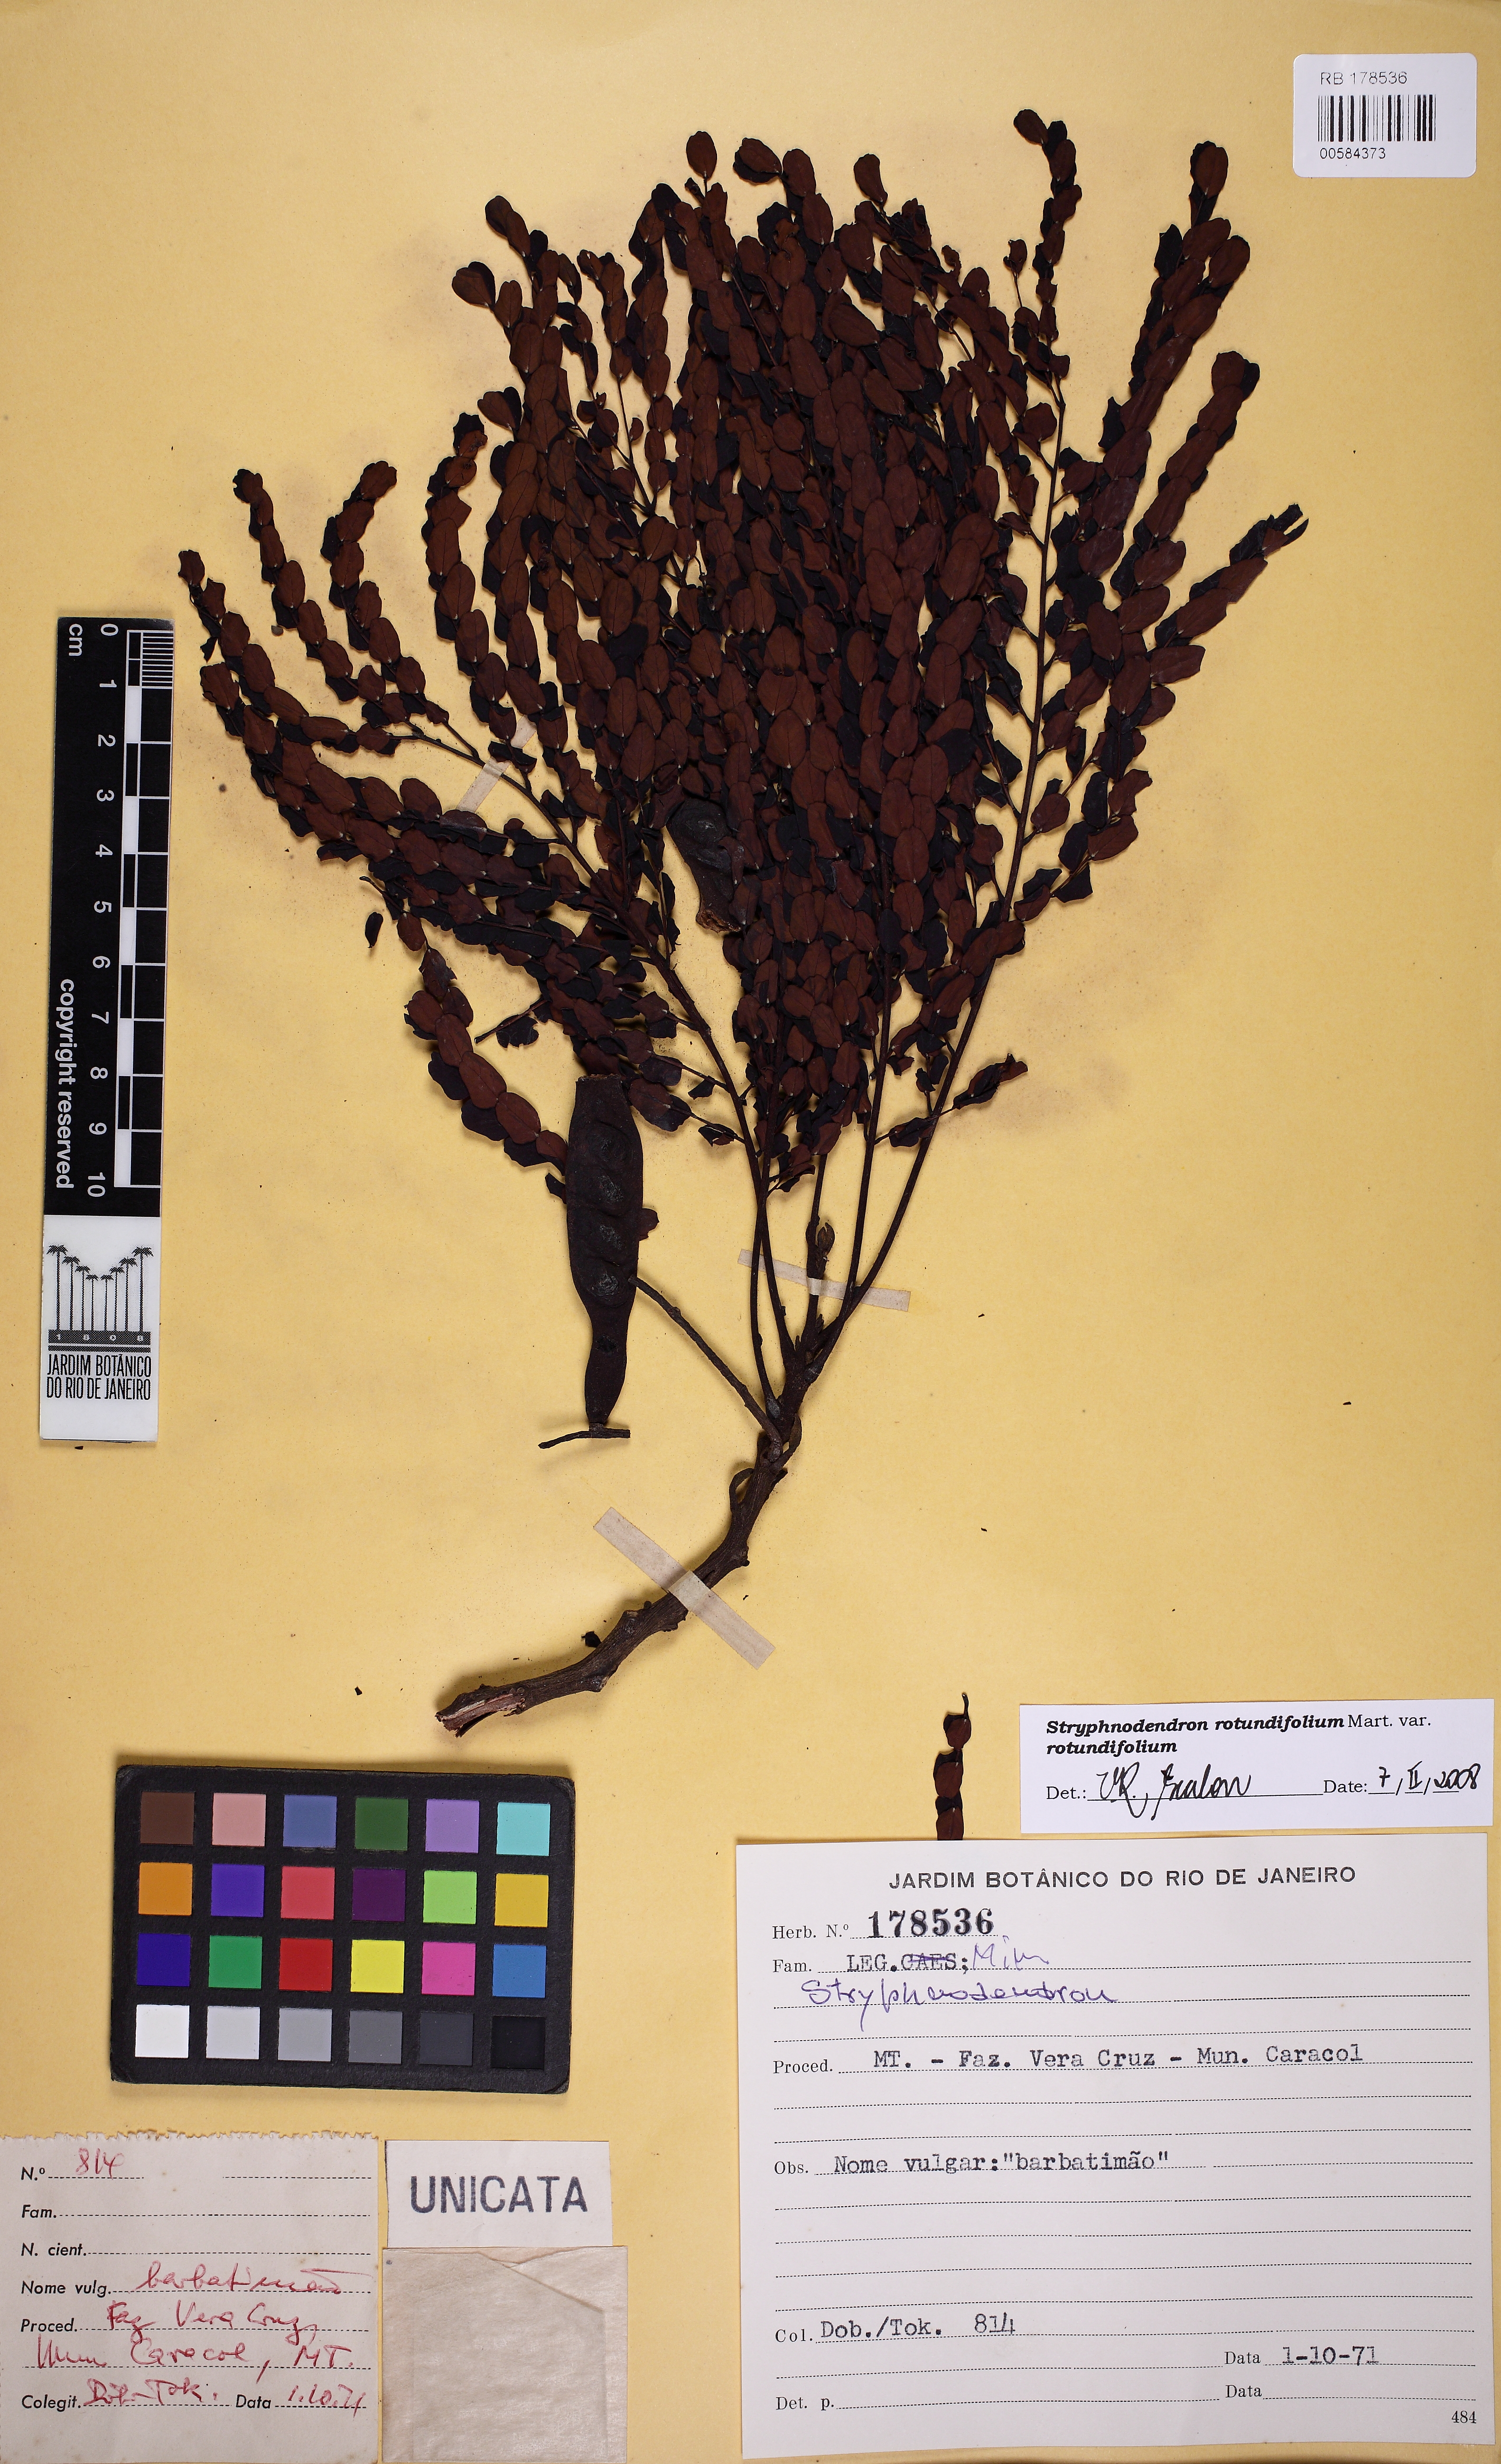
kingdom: Plantae
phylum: Tracheophyta
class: Magnoliopsida
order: Fabales
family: Fabaceae
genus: Stryphnodendron
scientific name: Stryphnodendron rotundifolium
